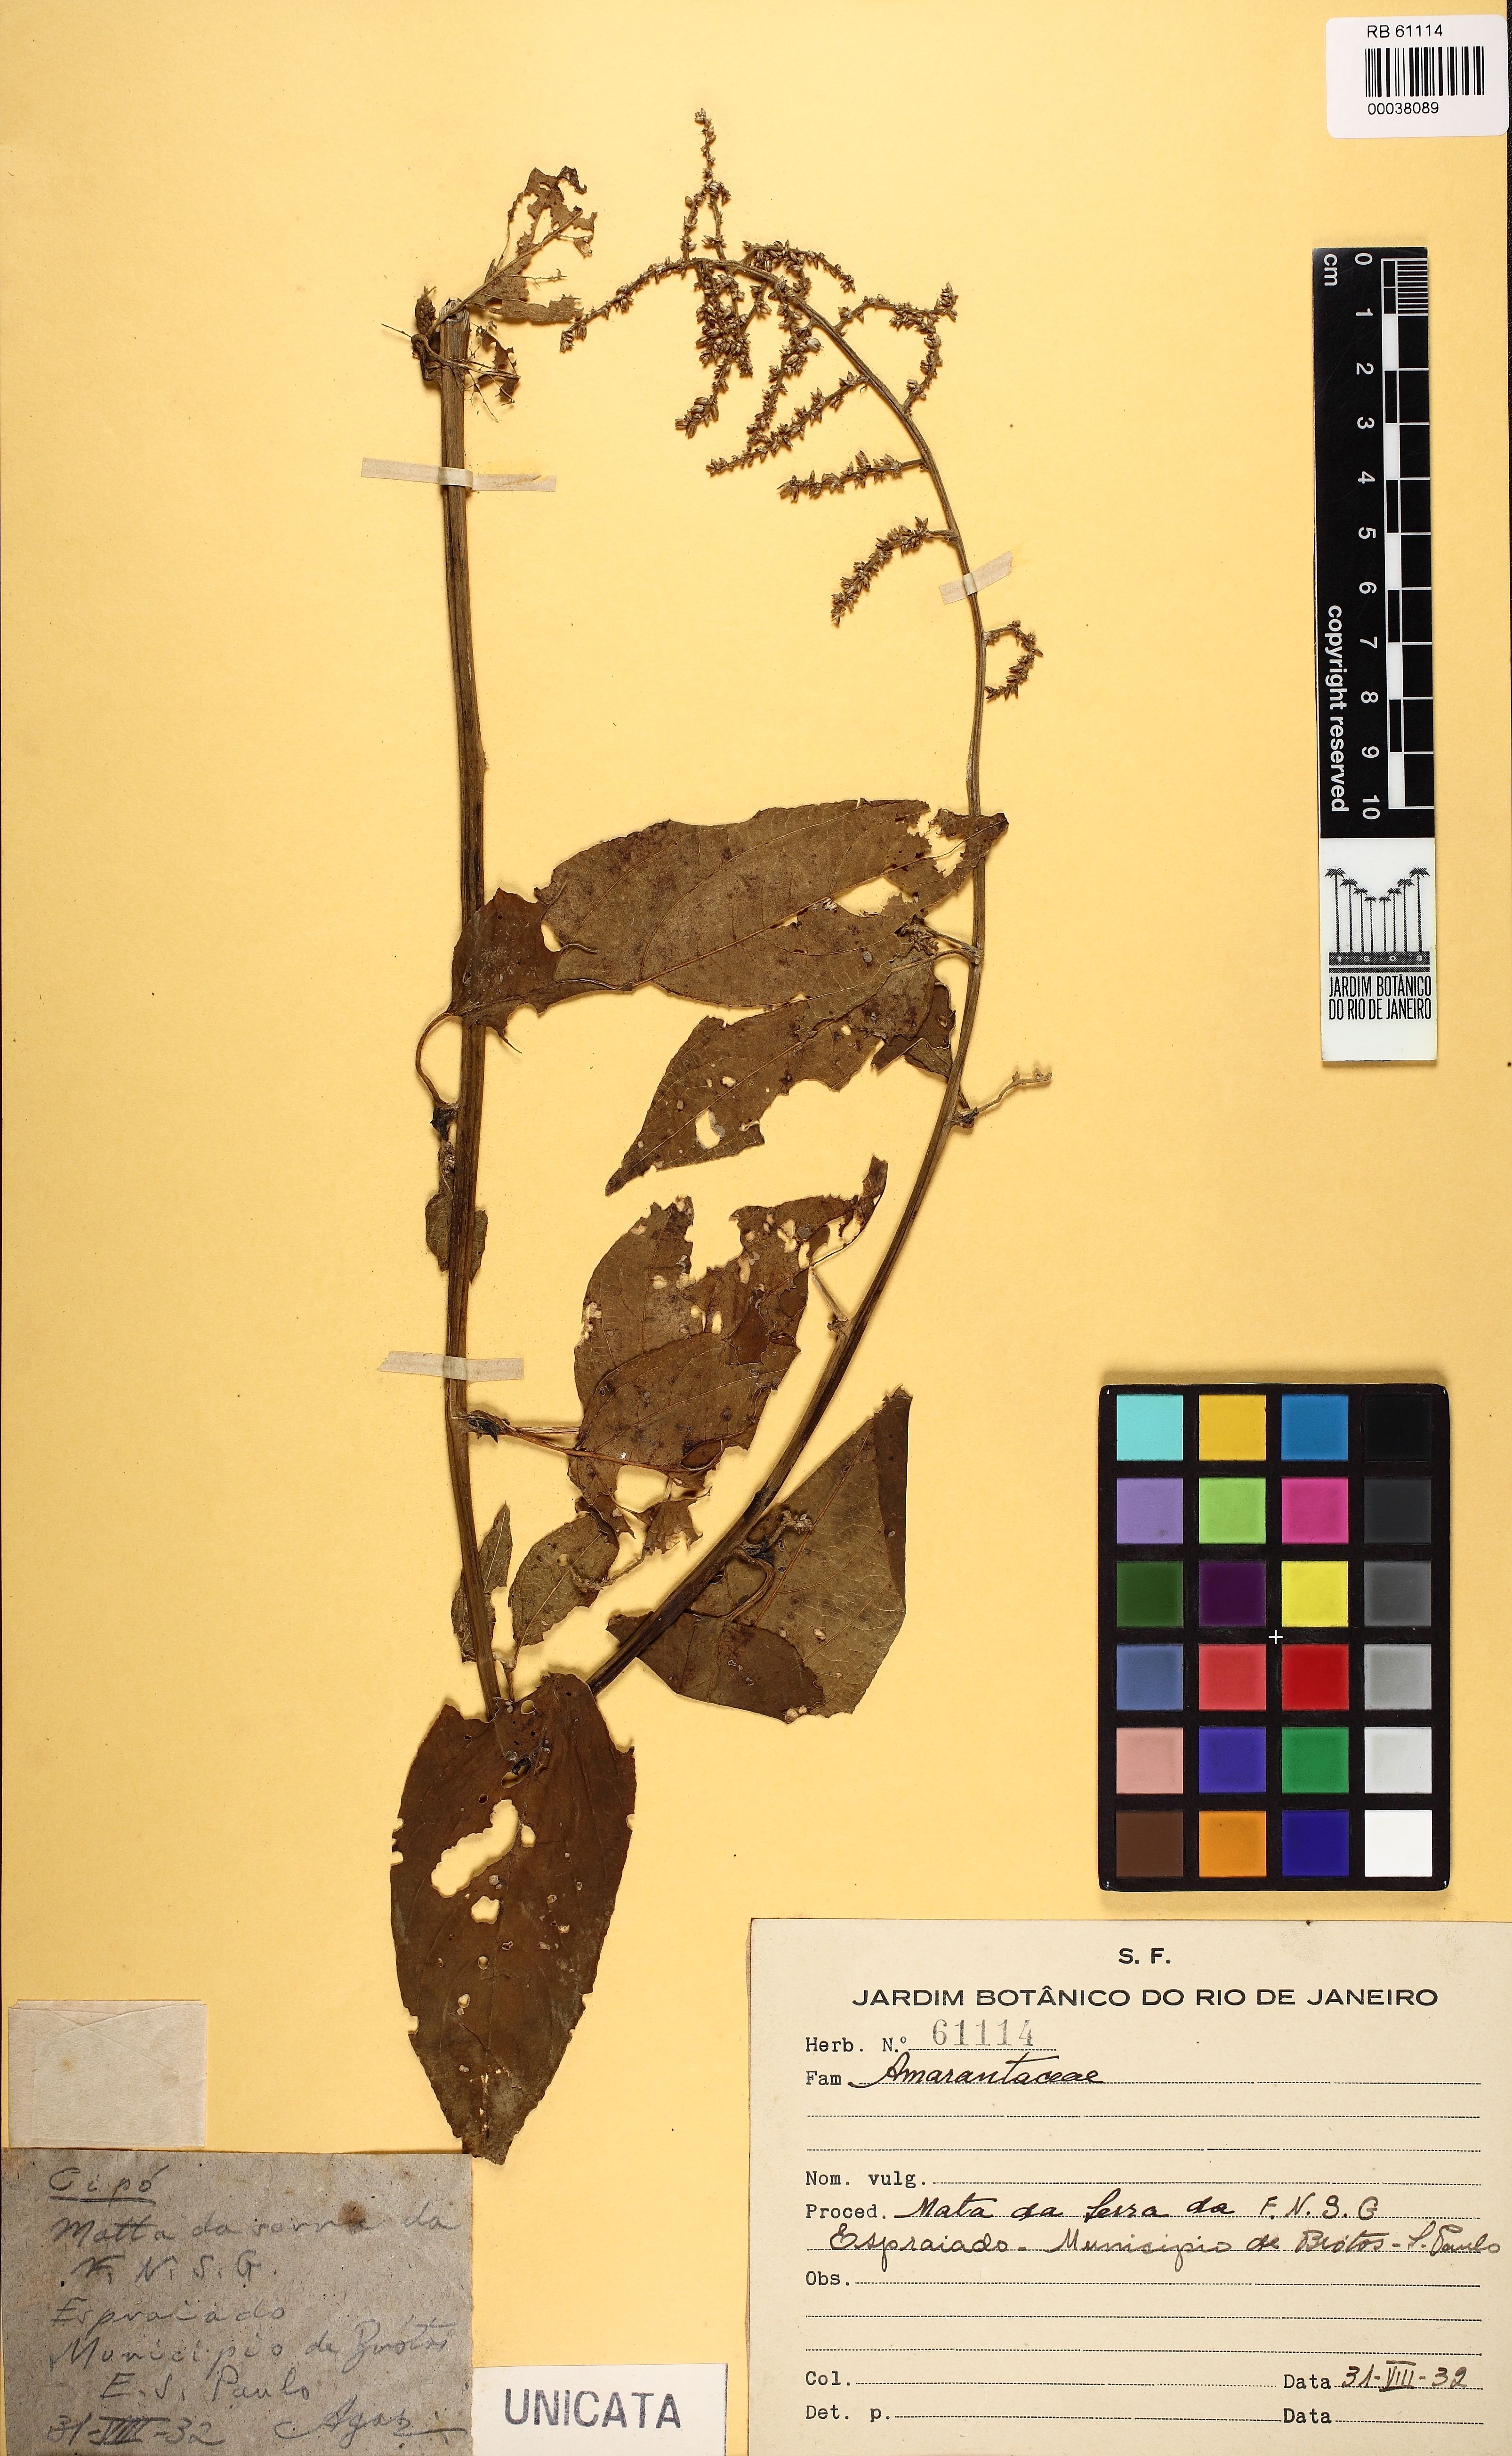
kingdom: Plantae
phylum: Tracheophyta
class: Magnoliopsida
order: Caryophyllales
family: Amaranthaceae
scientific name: Amaranthaceae
